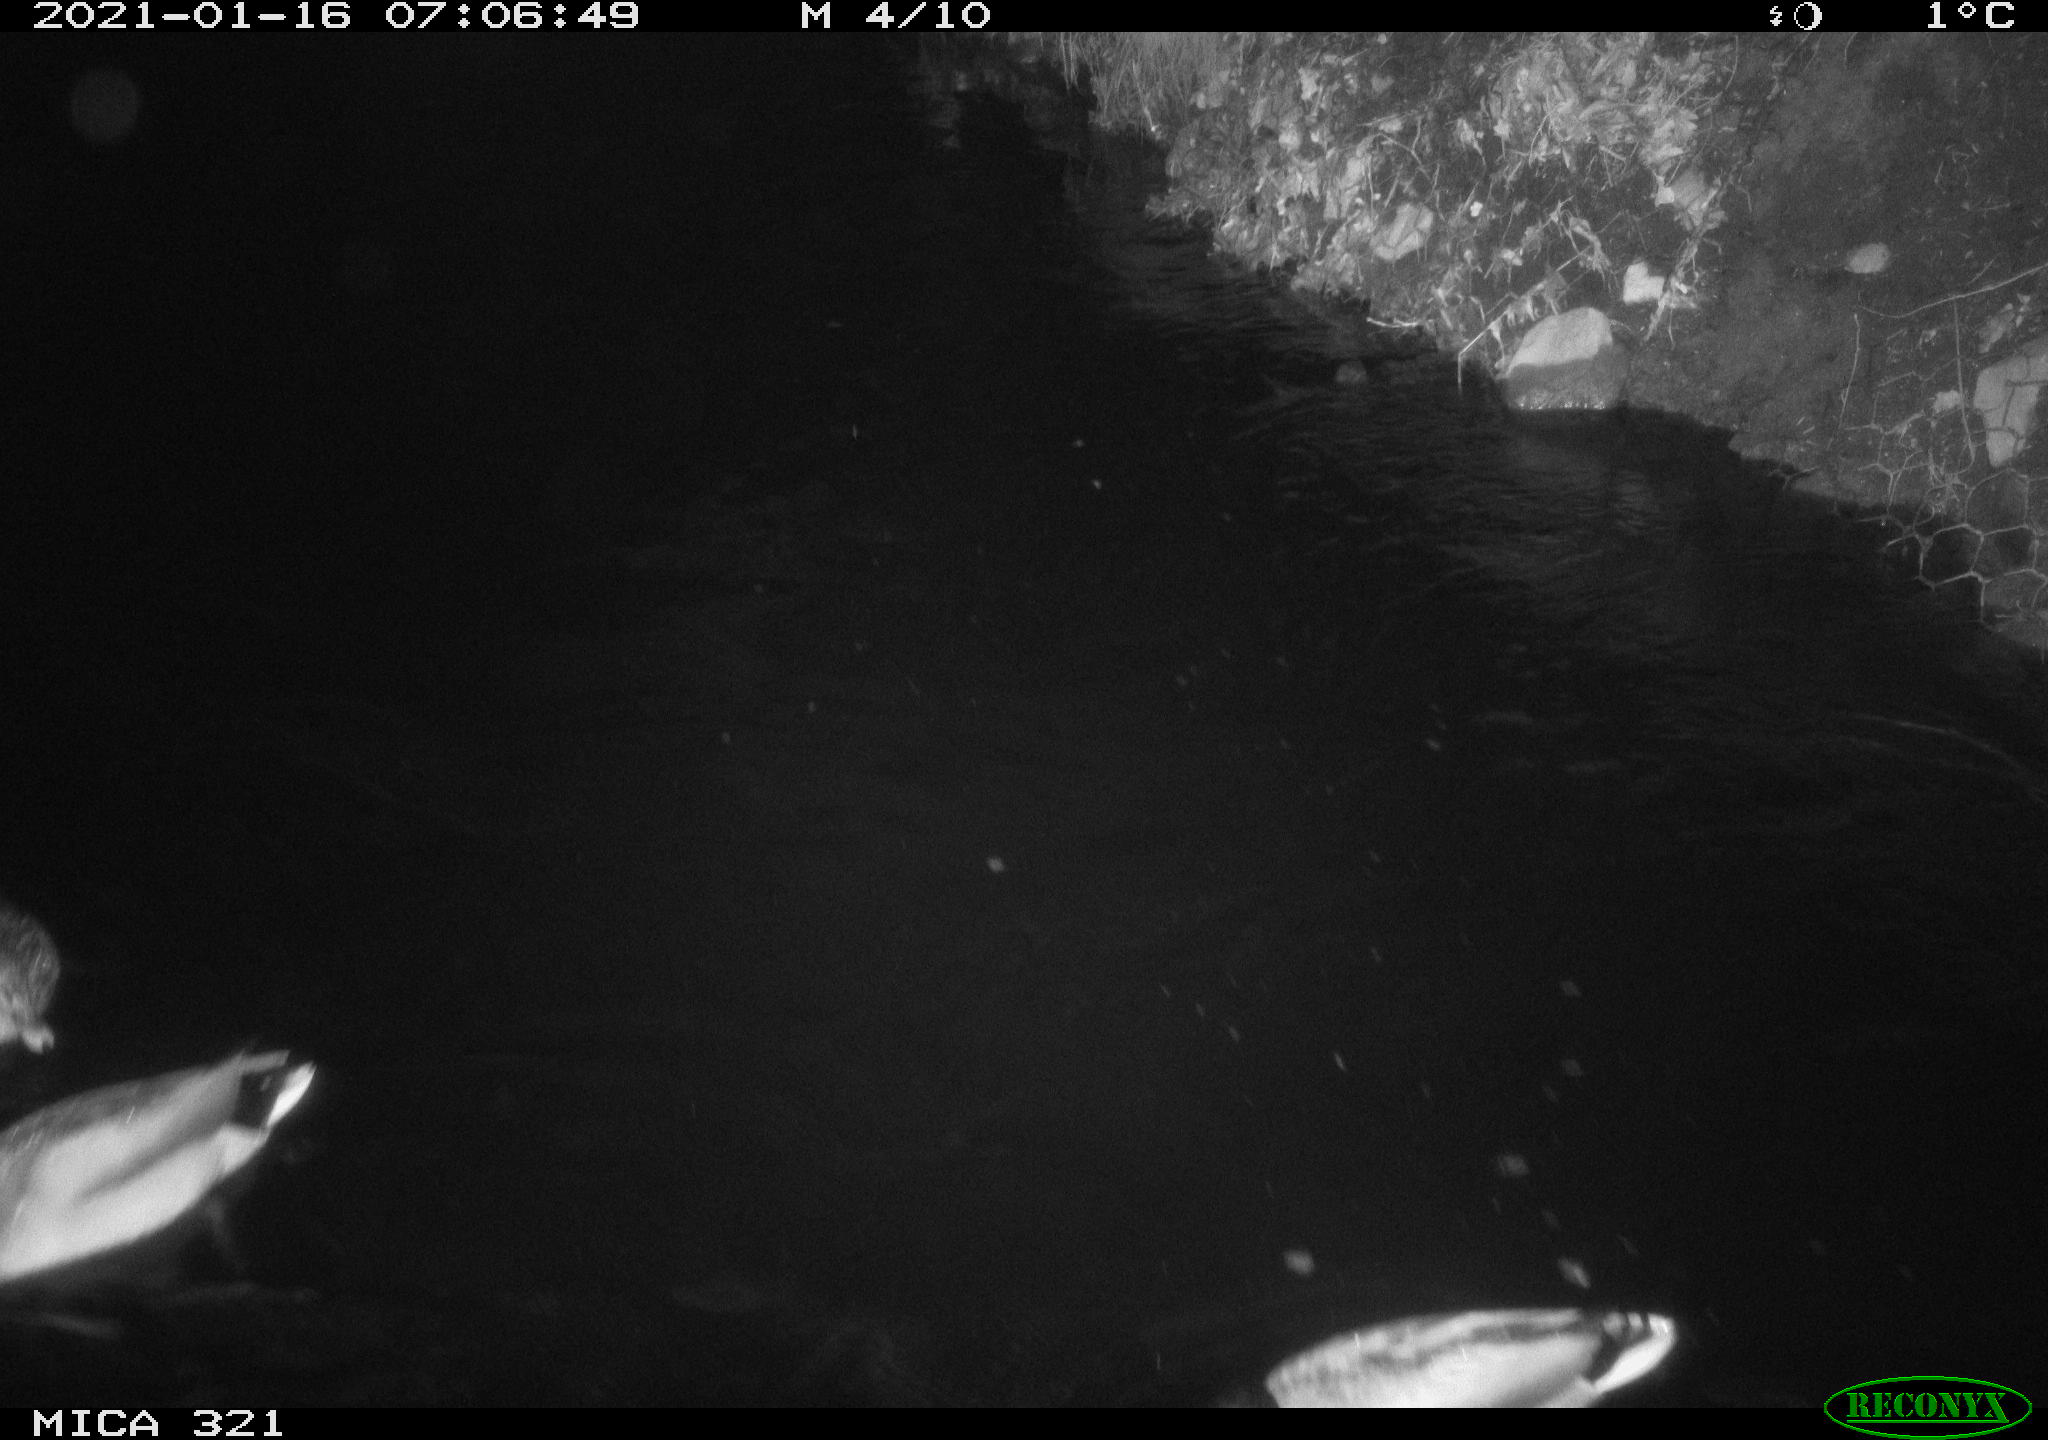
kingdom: Animalia
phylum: Chordata
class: Aves
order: Anseriformes
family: Anatidae
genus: Anas
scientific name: Anas platyrhynchos
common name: Mallard
